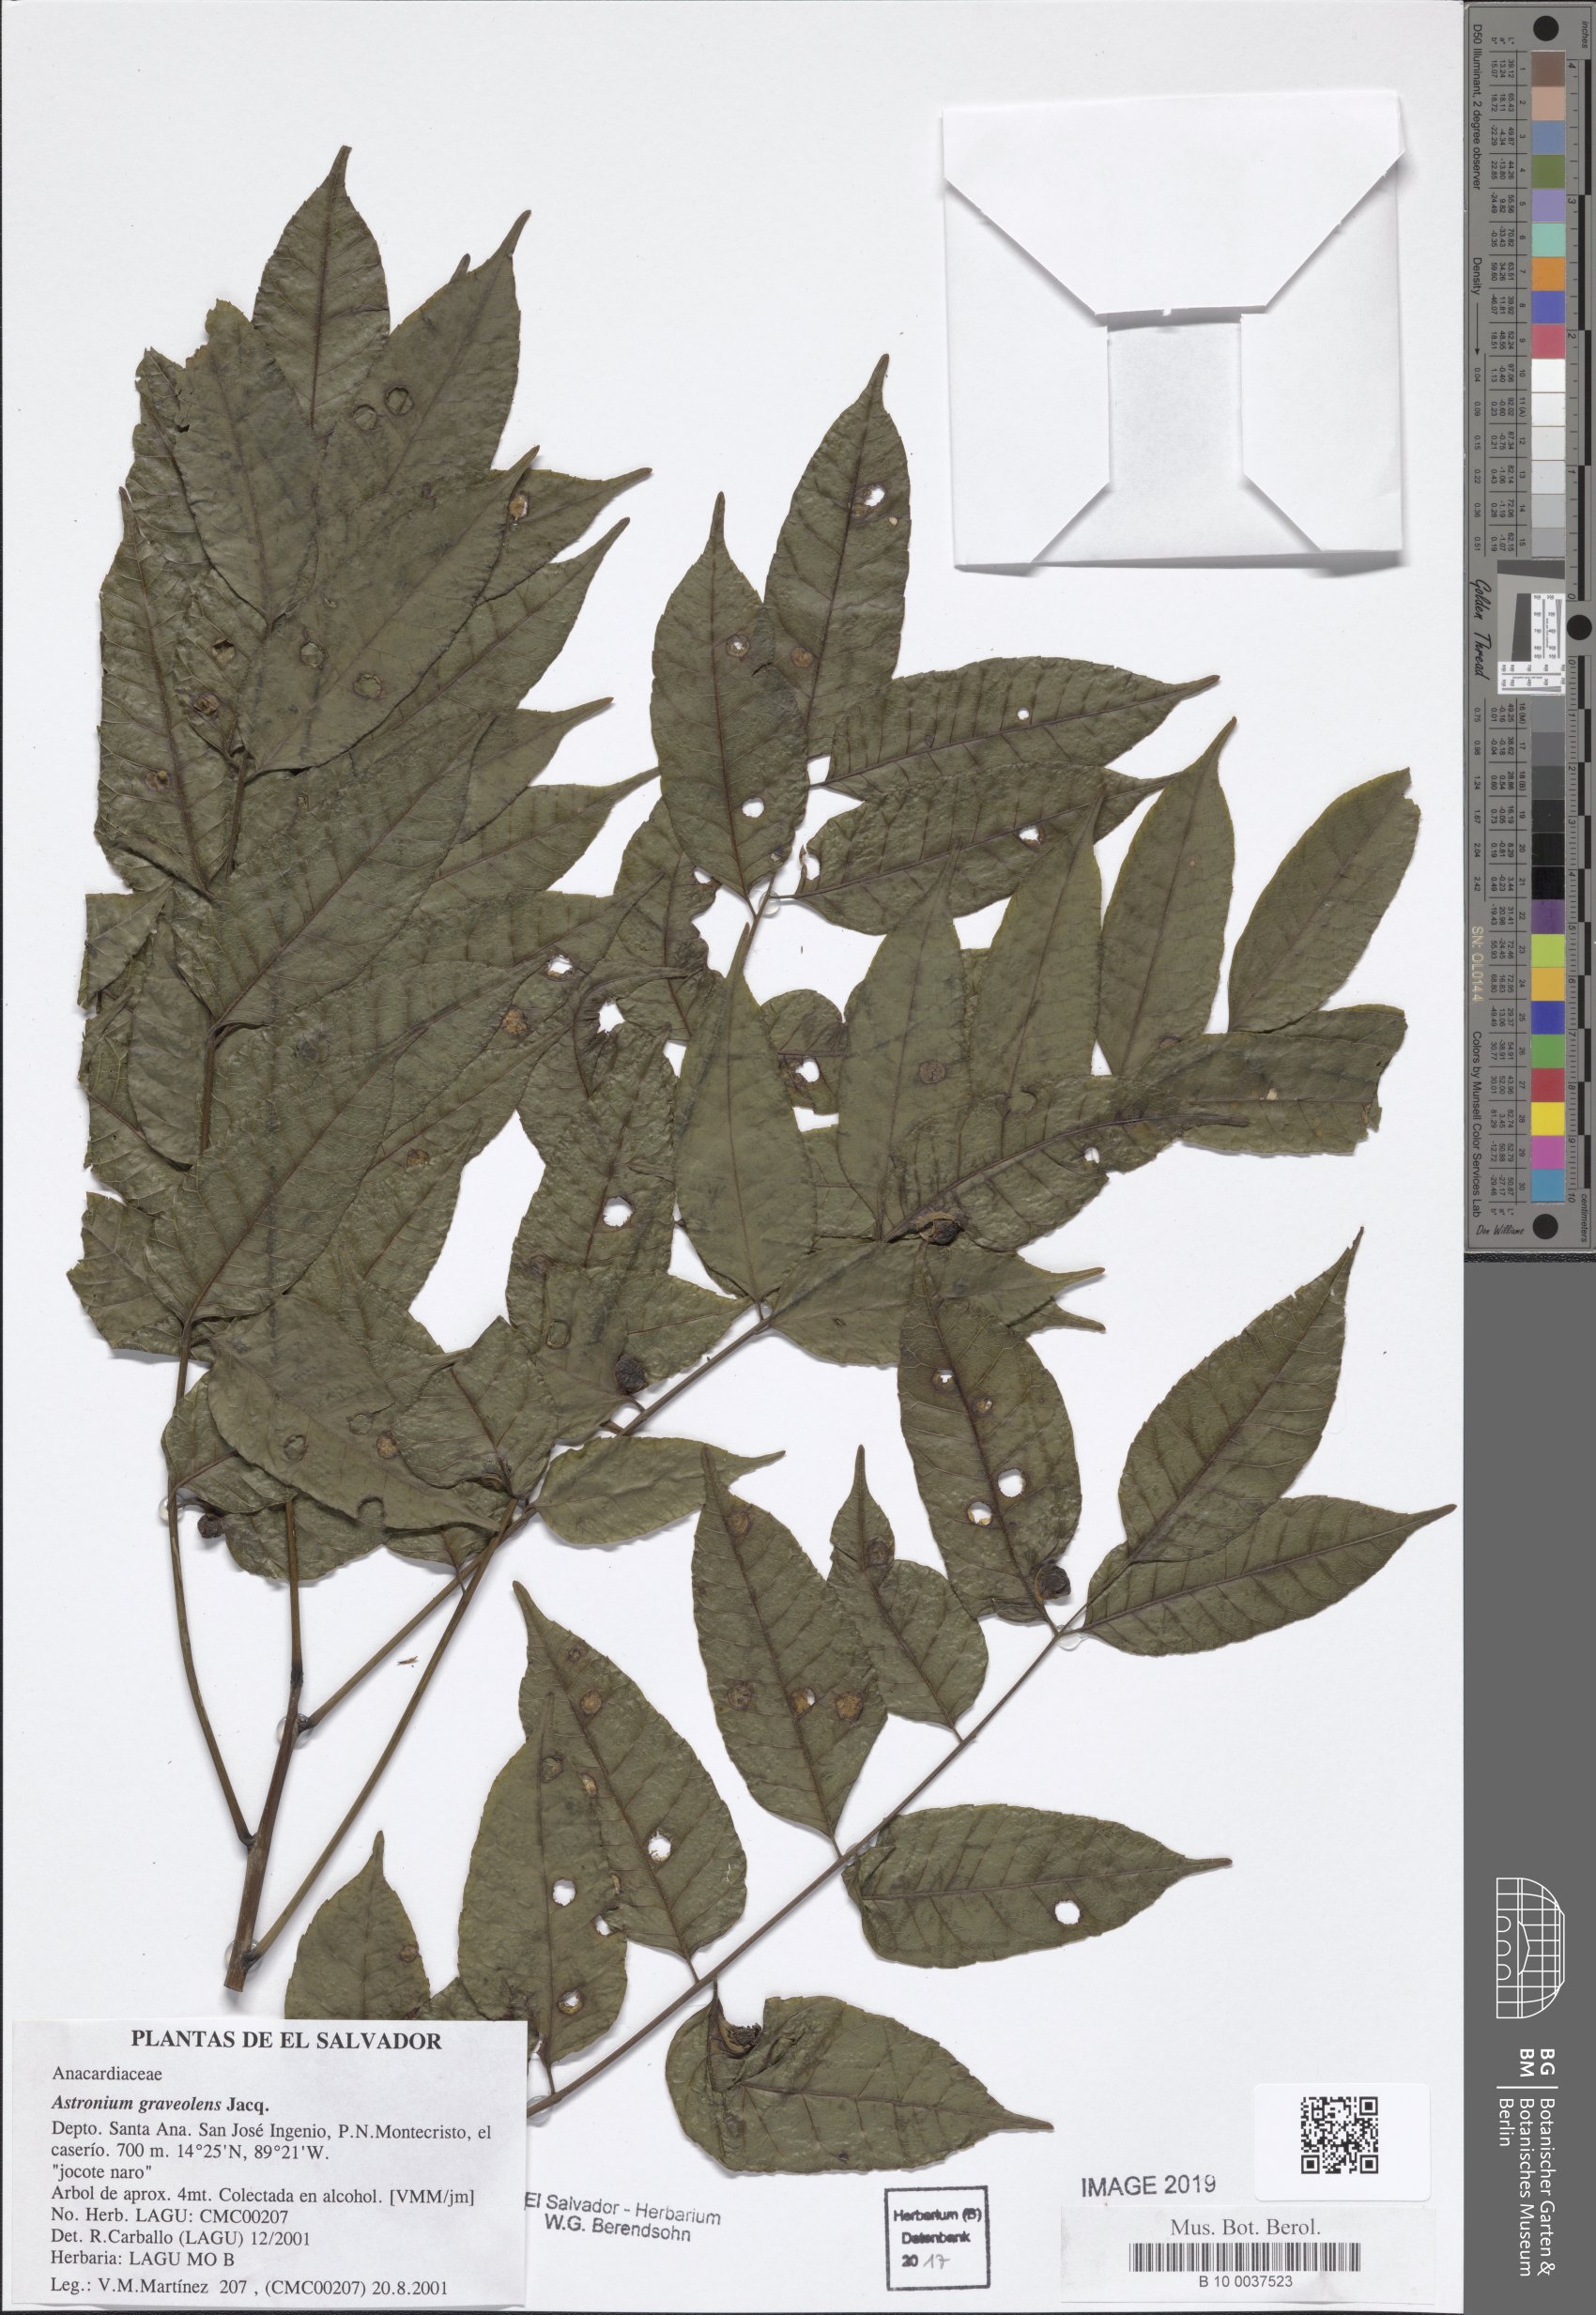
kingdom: Plantae
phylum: Tracheophyta
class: Magnoliopsida
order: Sapindales
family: Anacardiaceae
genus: Astronium
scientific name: Astronium graveolens
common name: Glassywood
